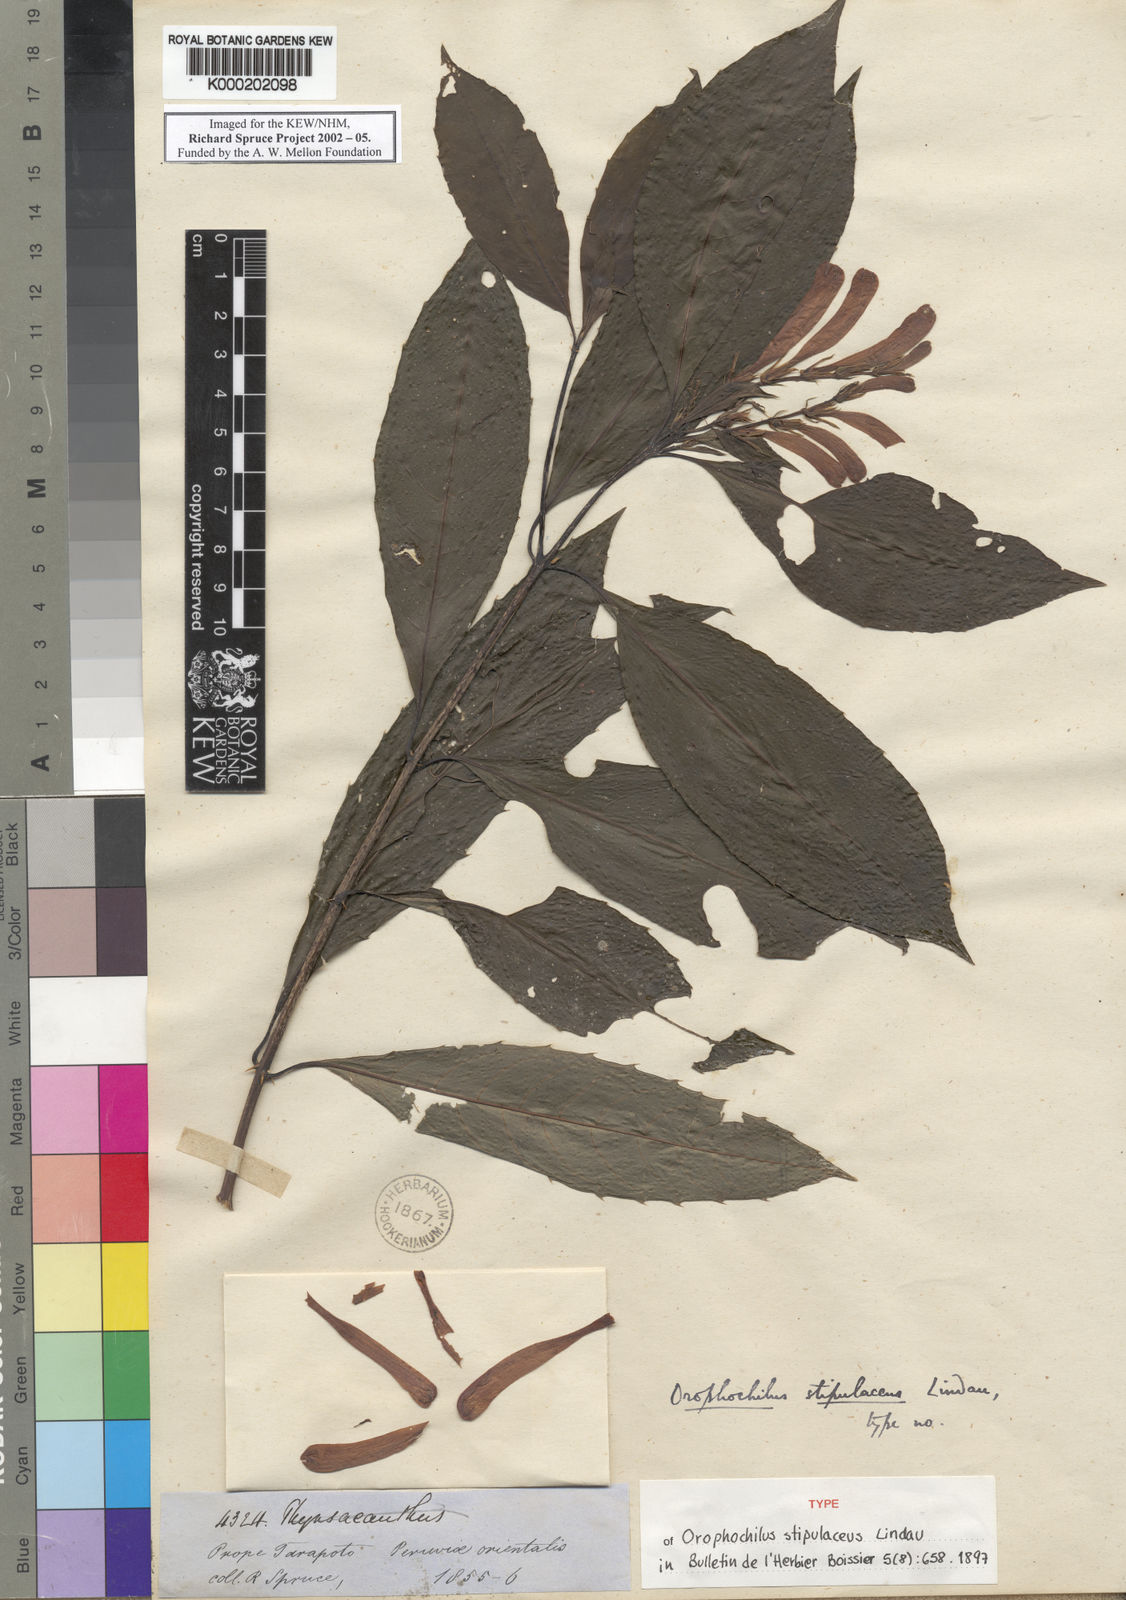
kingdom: Plantae
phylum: Tracheophyta
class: Magnoliopsida
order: Lamiales
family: Acanthaceae
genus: Aphelandra
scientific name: Aphelandra stipulacea
